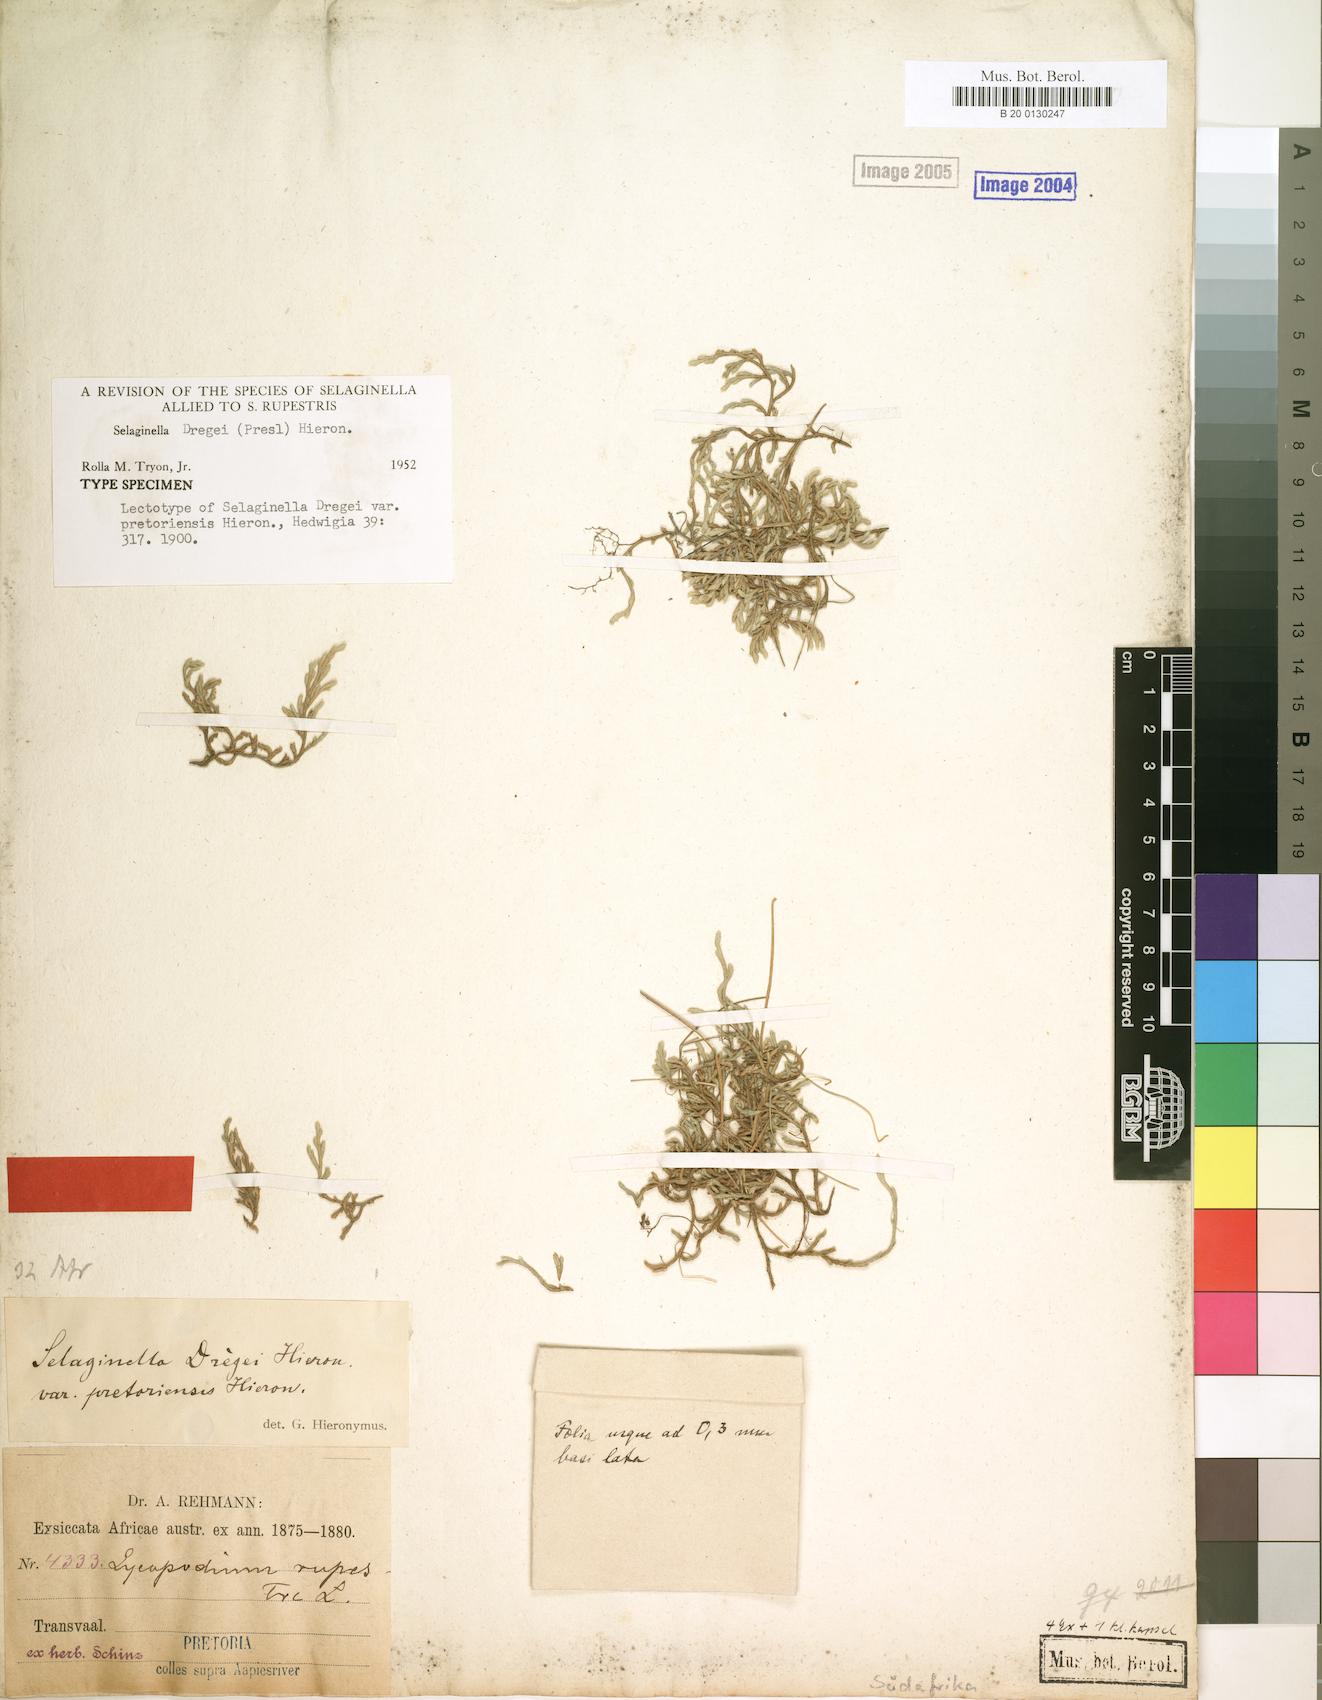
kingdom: Plantae
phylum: Tracheophyta
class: Lycopodiopsida
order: Selaginellales
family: Selaginellaceae
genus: Selaginella
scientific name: Selaginella dregei
